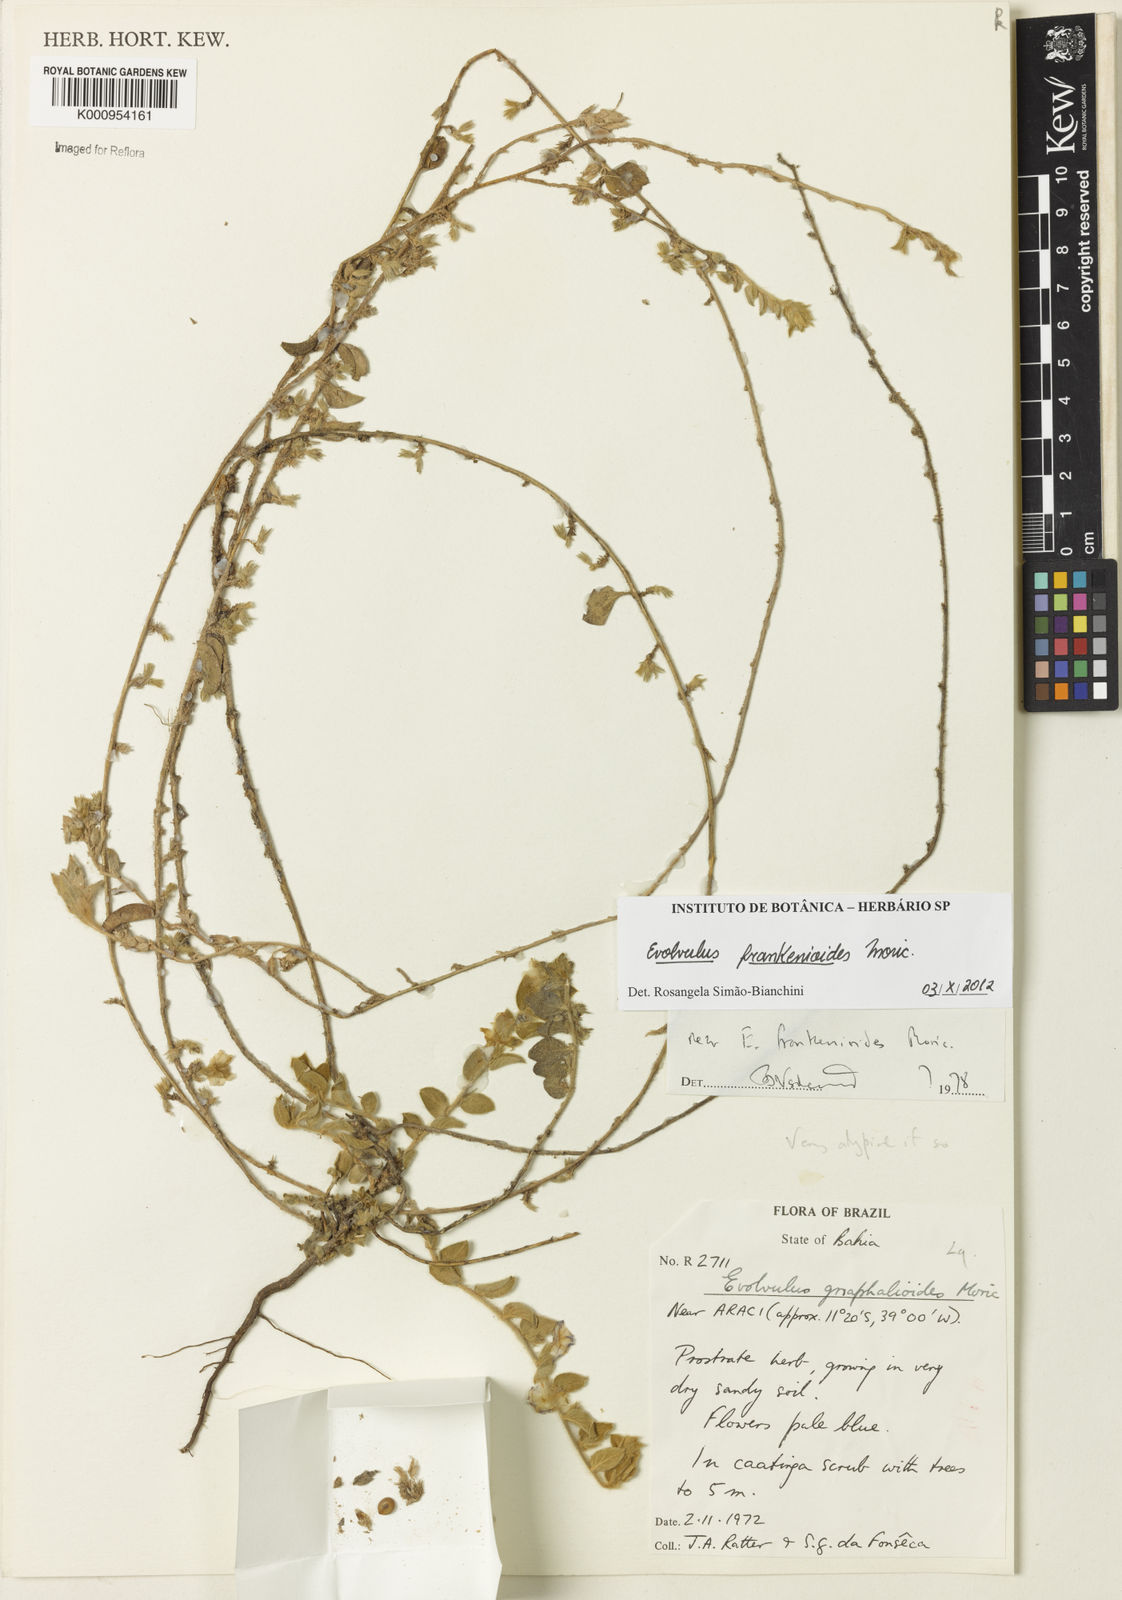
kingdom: Plantae
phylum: Tracheophyta
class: Magnoliopsida
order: Solanales
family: Convolvulaceae
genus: Evolvulus
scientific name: Evolvulus frankenioides
